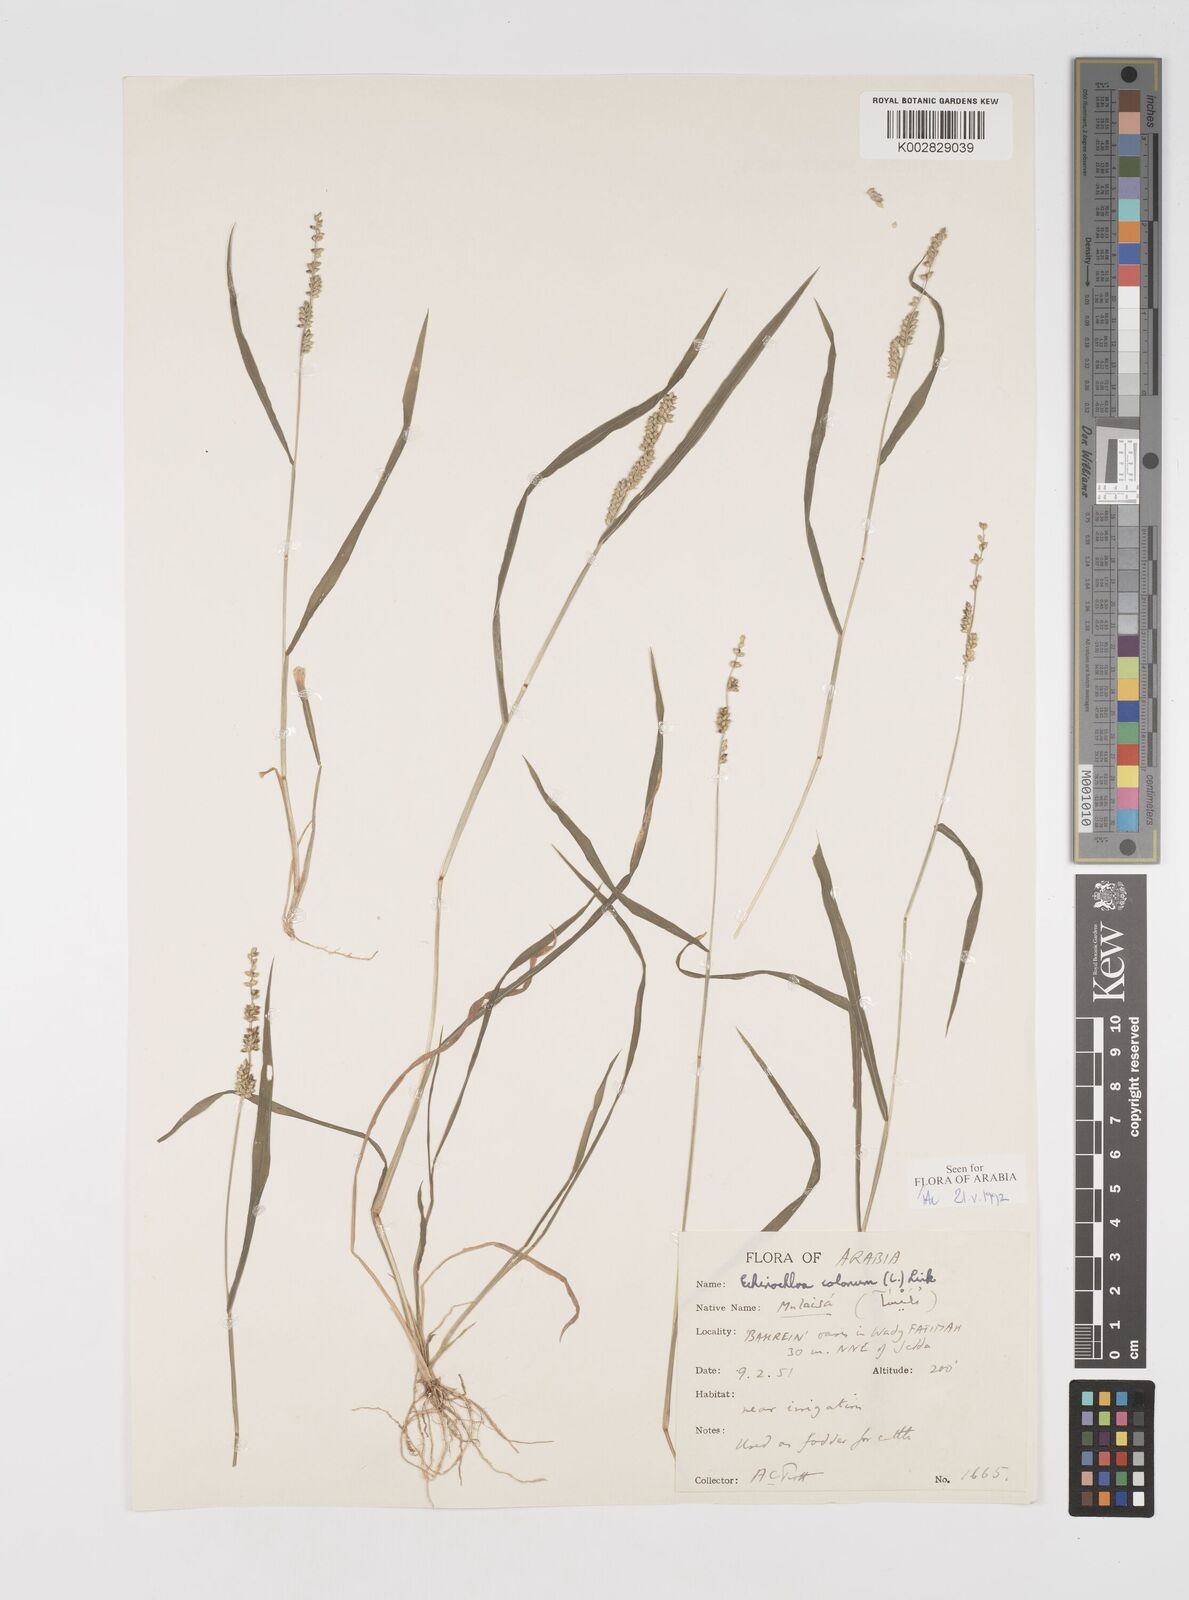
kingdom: Plantae
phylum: Tracheophyta
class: Liliopsida
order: Poales
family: Poaceae
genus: Echinochloa
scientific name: Echinochloa colonum
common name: Jungle rice
